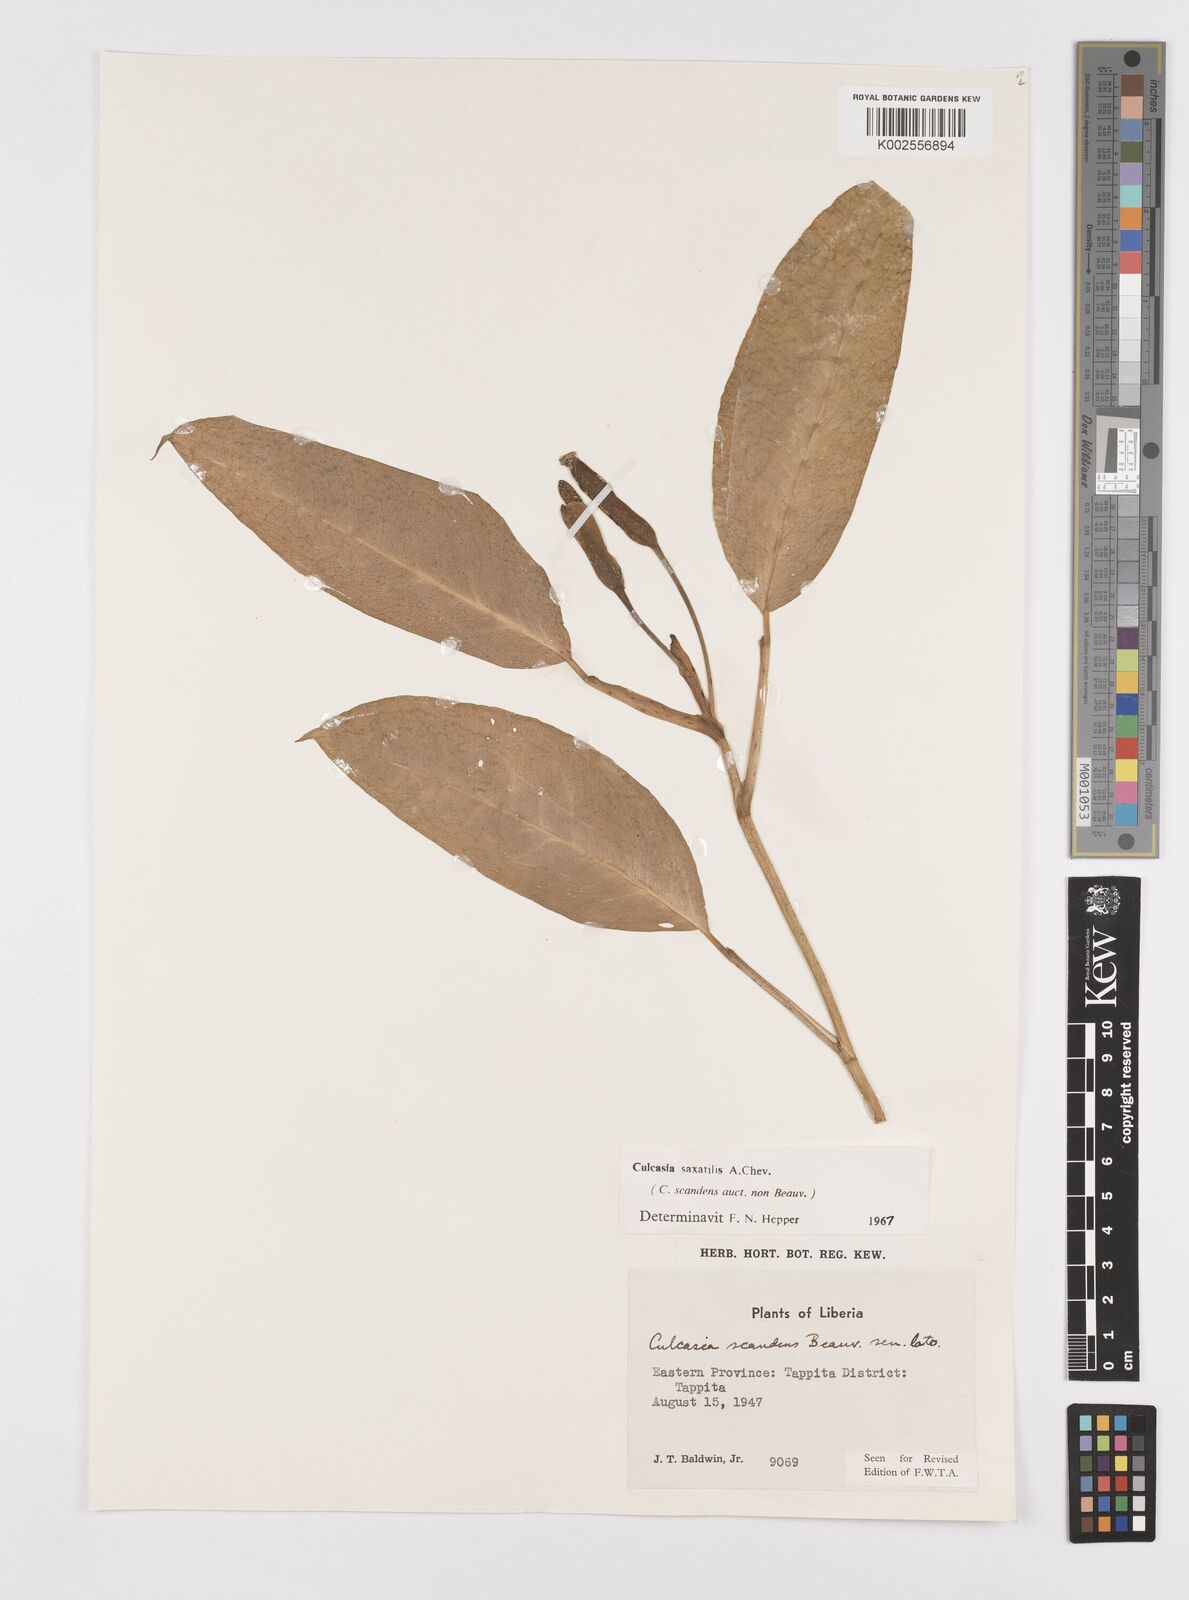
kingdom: Plantae
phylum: Tracheophyta
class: Liliopsida
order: Alismatales
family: Araceae
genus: Culcasia
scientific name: Culcasia scandens
